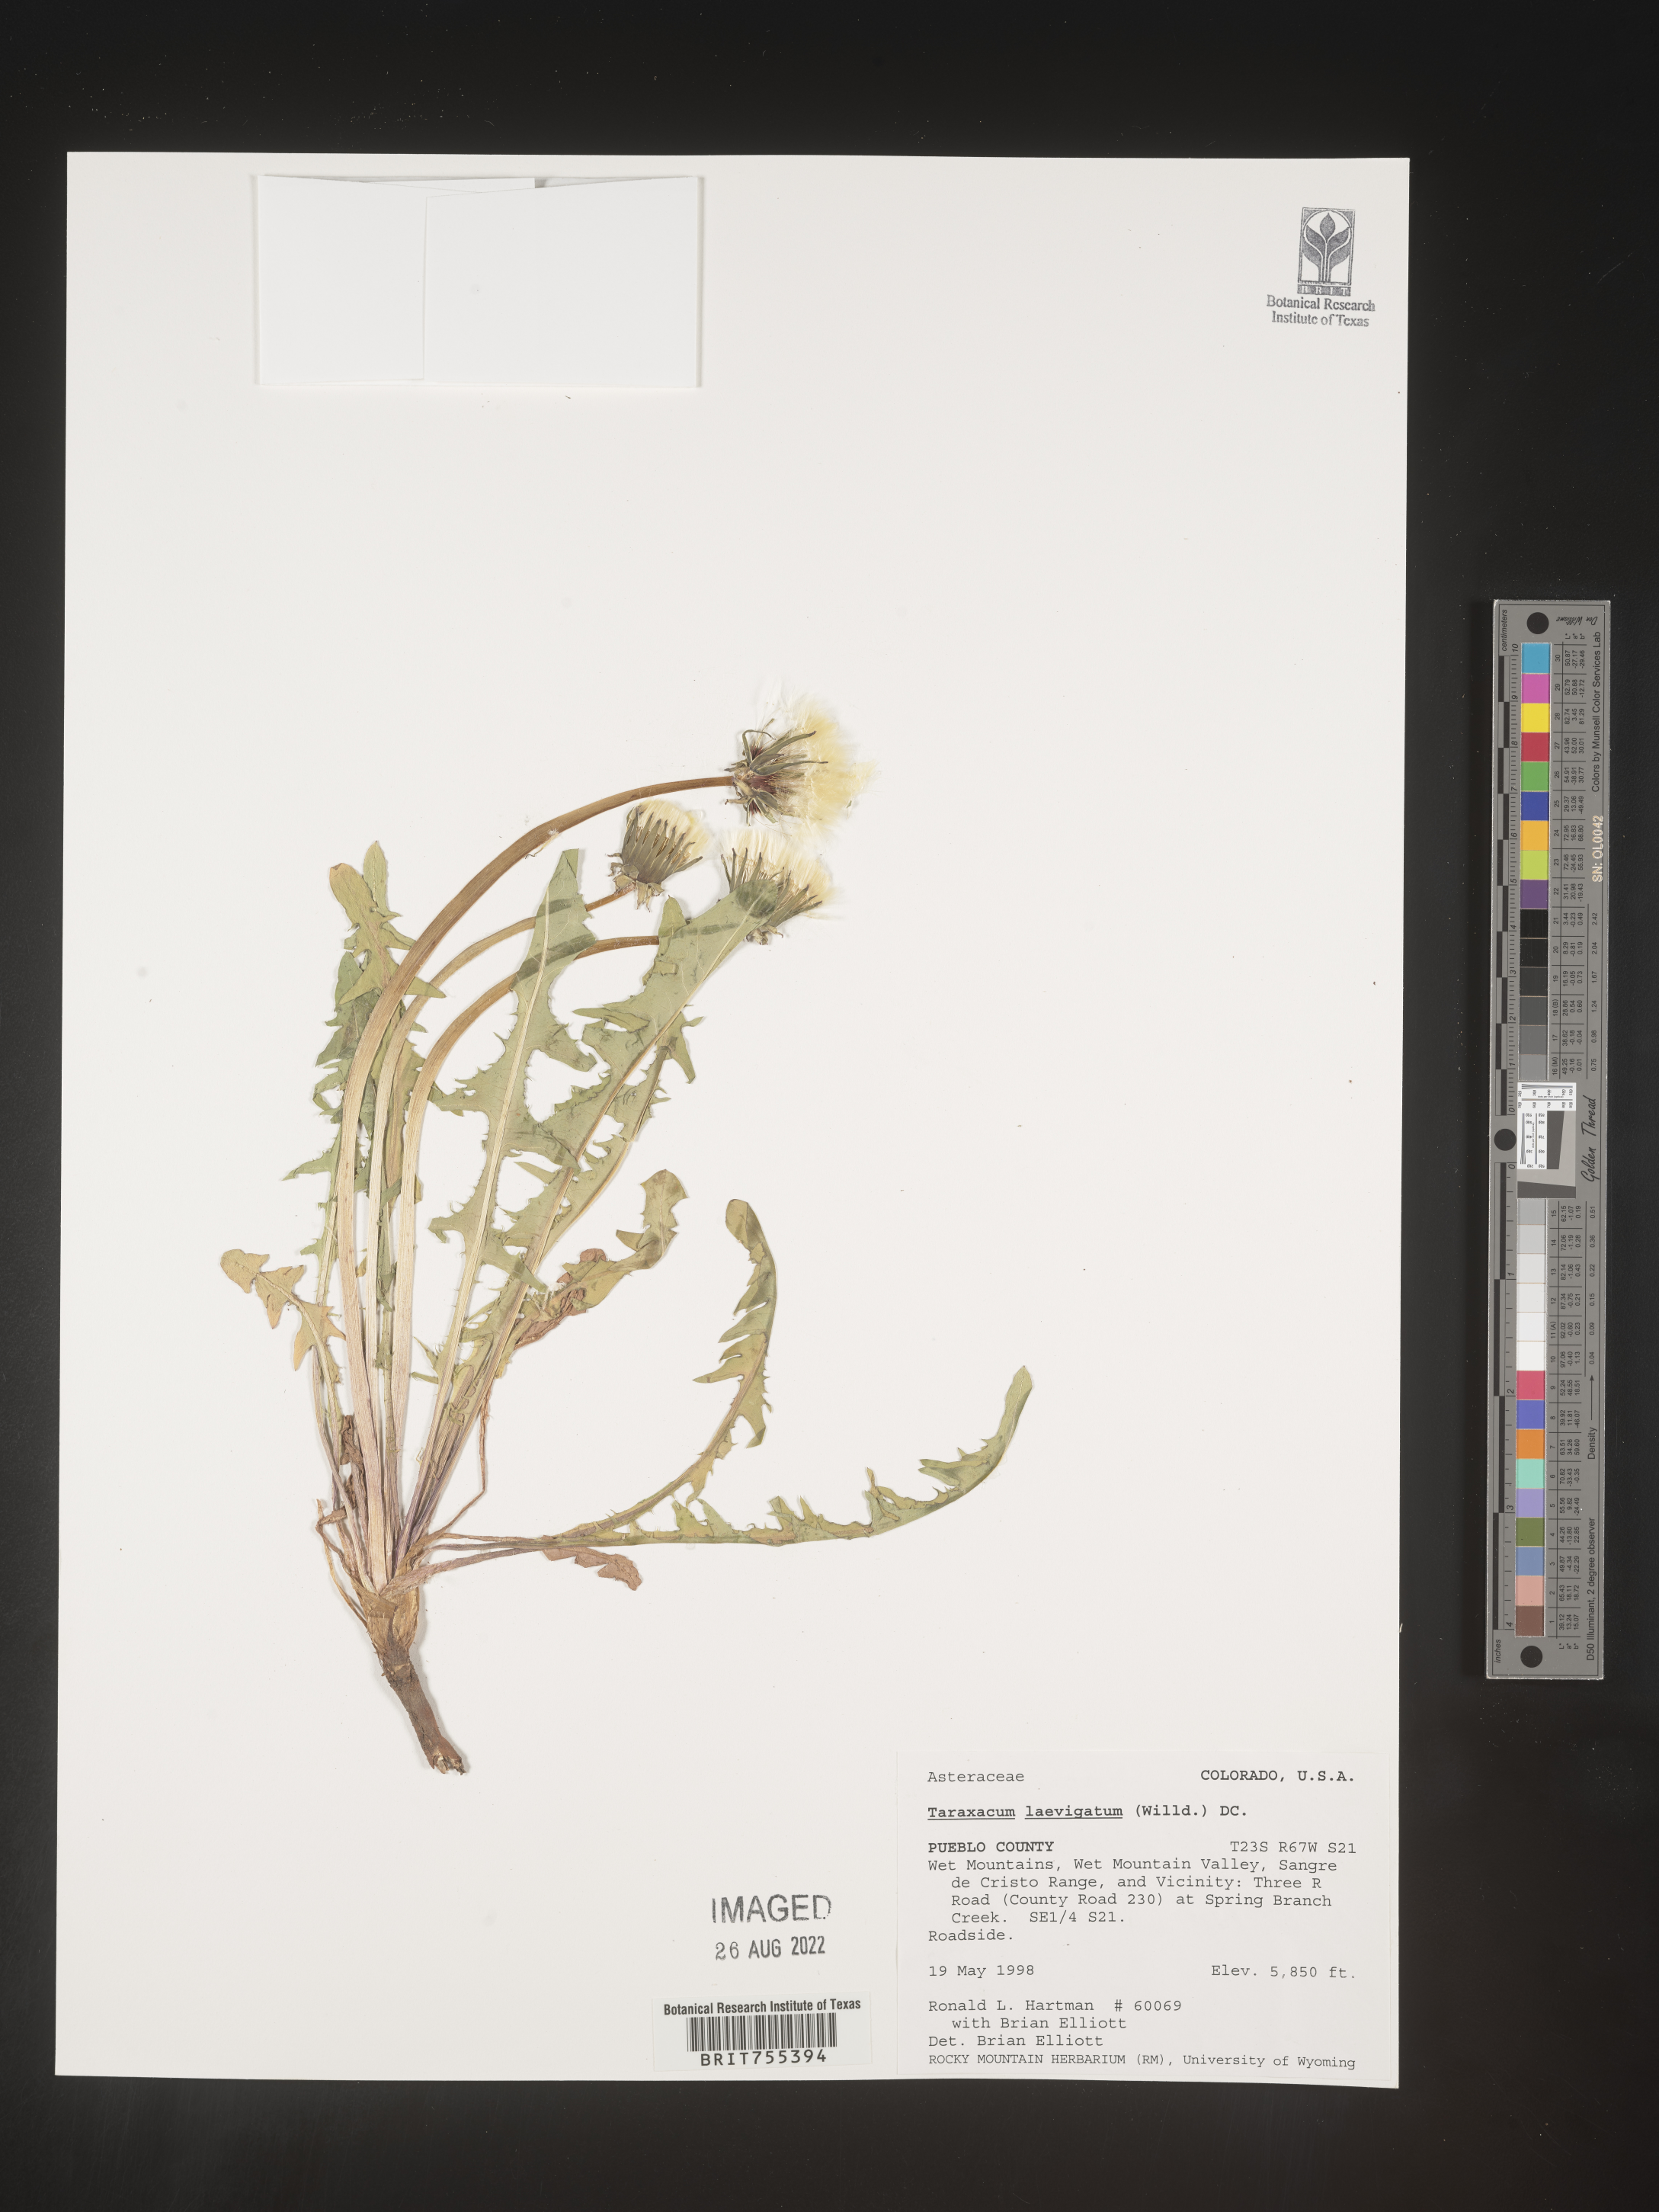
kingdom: Plantae
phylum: Tracheophyta
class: Magnoliopsida
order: Asterales
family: Asteraceae
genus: Taraxacum
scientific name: Taraxacum erythrospermum
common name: Rock dandelion
